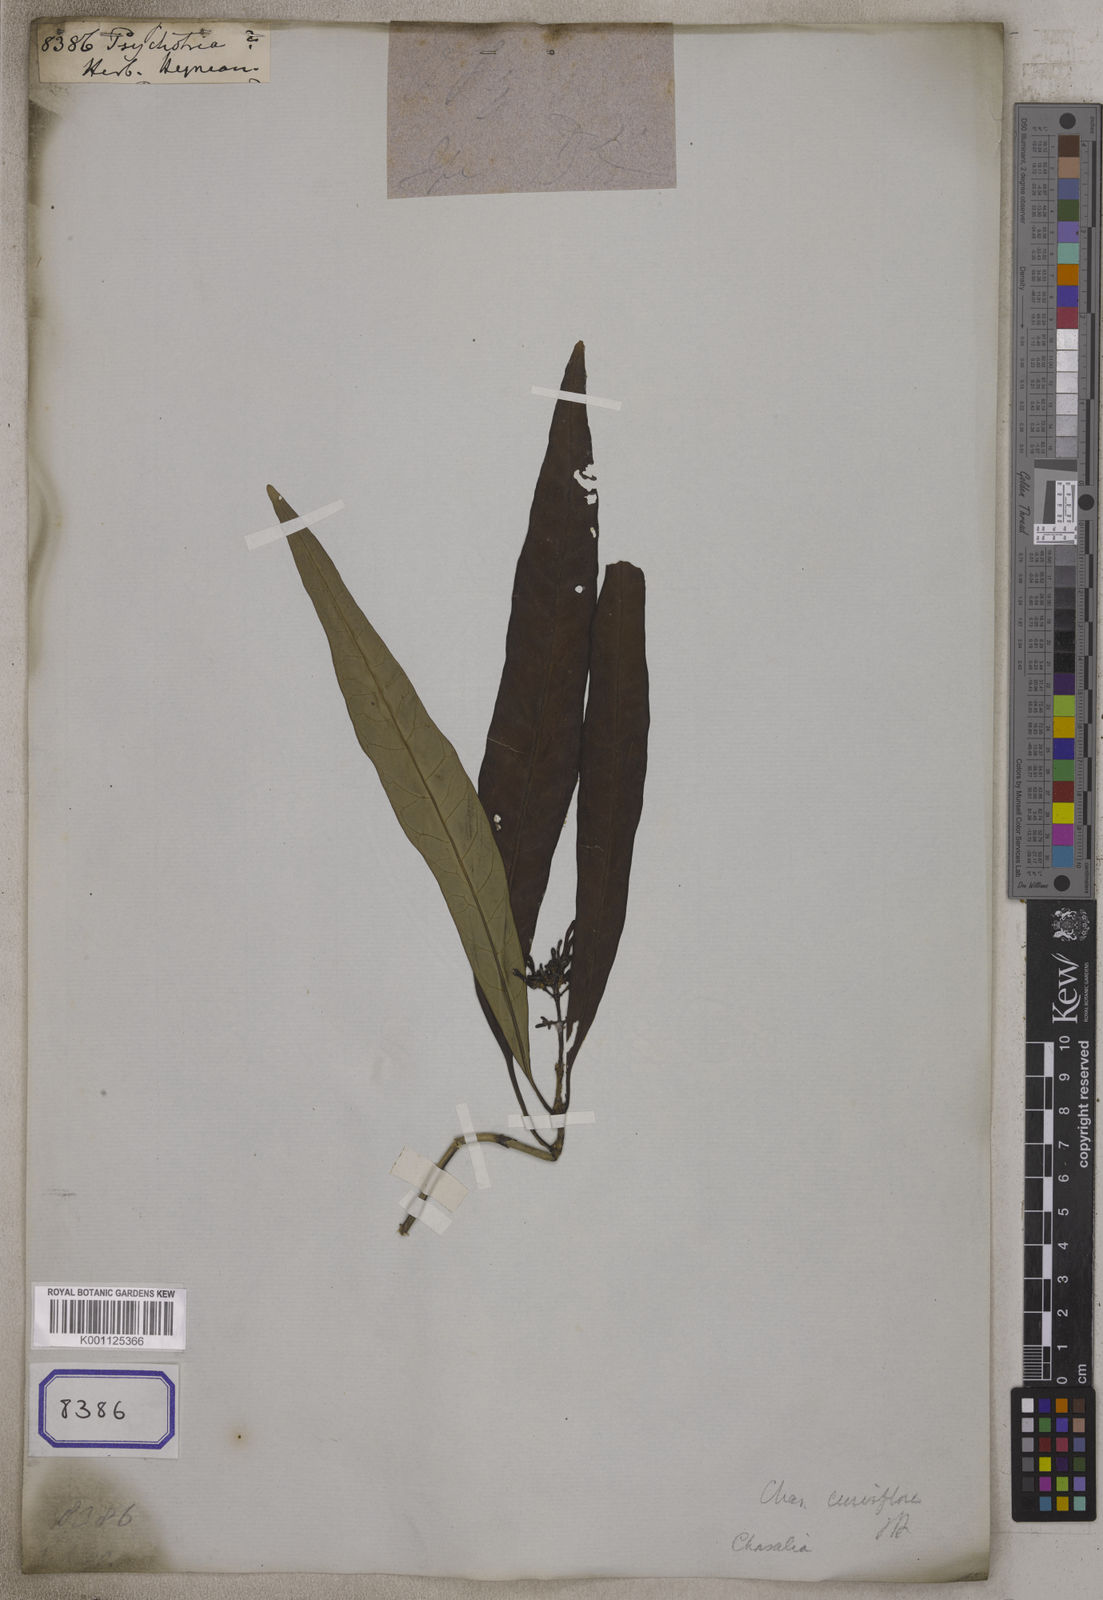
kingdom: Plantae
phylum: Tracheophyta
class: Magnoliopsida
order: Gentianales
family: Rubiaceae
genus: Psychotria
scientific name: Psychotria
